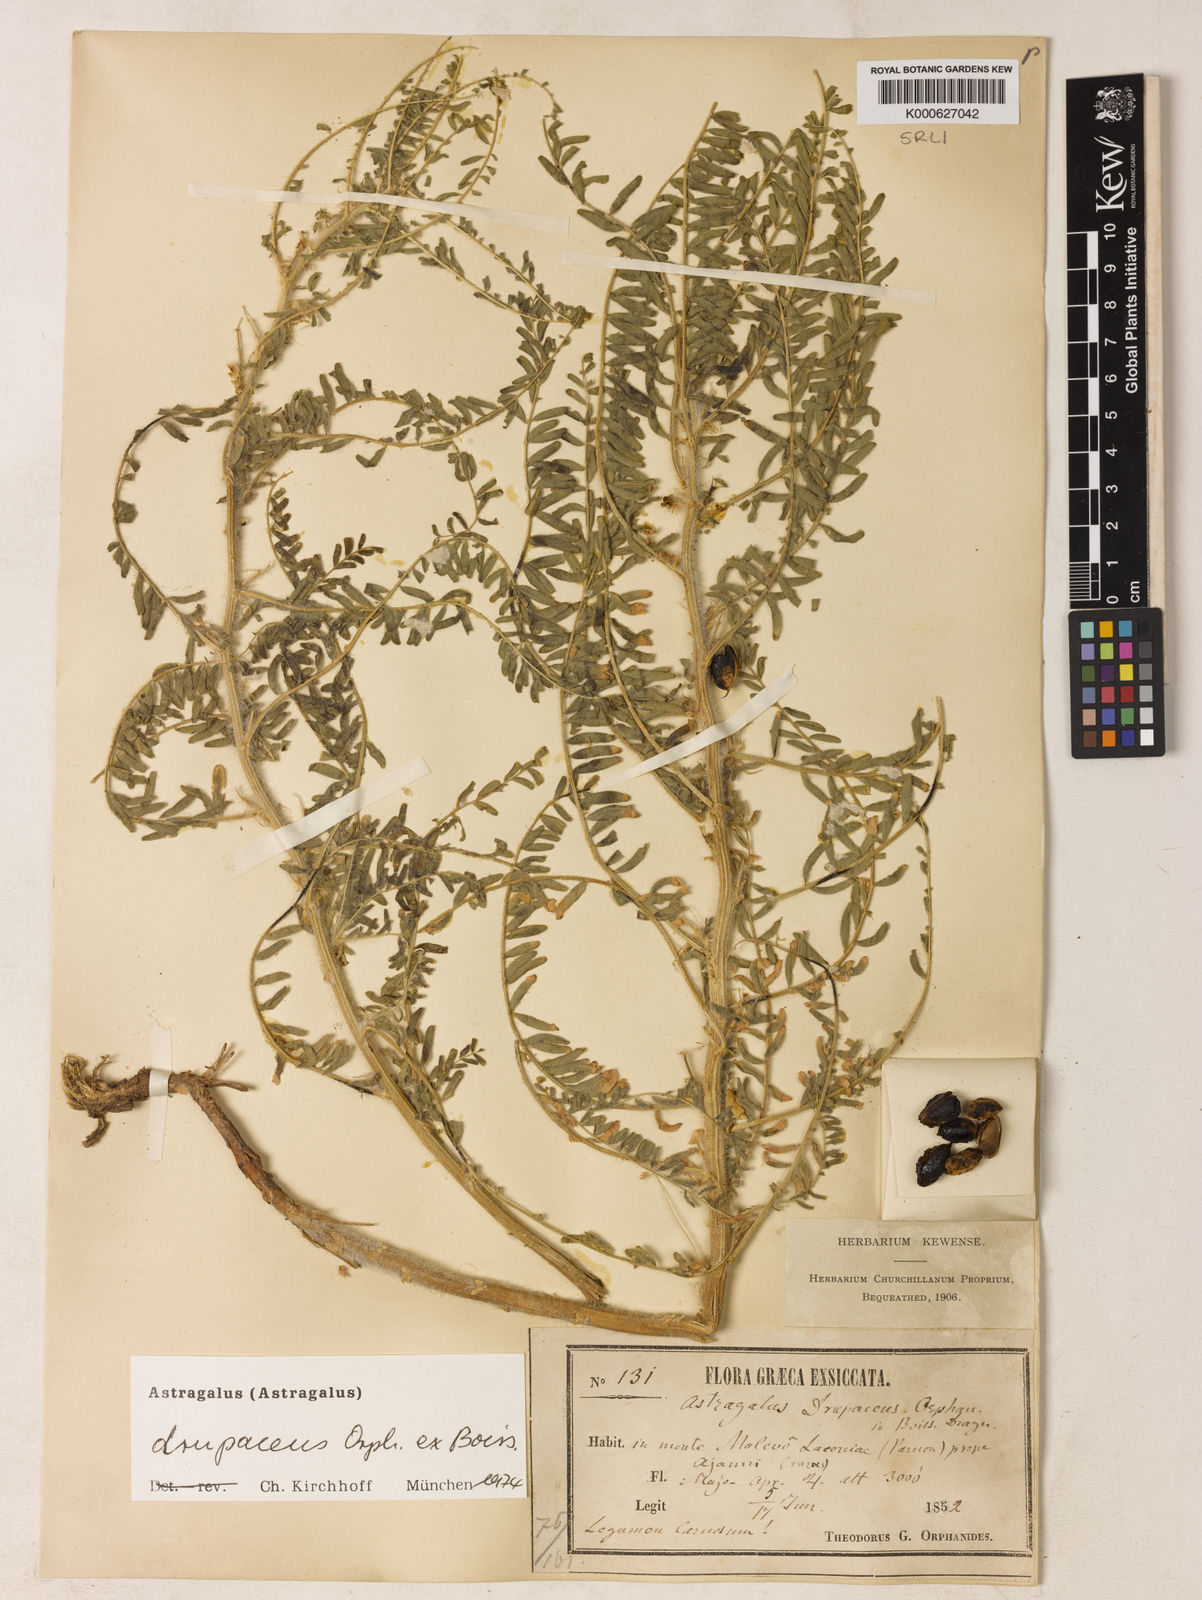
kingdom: Plantae
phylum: Tracheophyta
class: Magnoliopsida
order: Fabales
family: Fabaceae
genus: Astragalus
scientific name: Astragalus drupaceus
